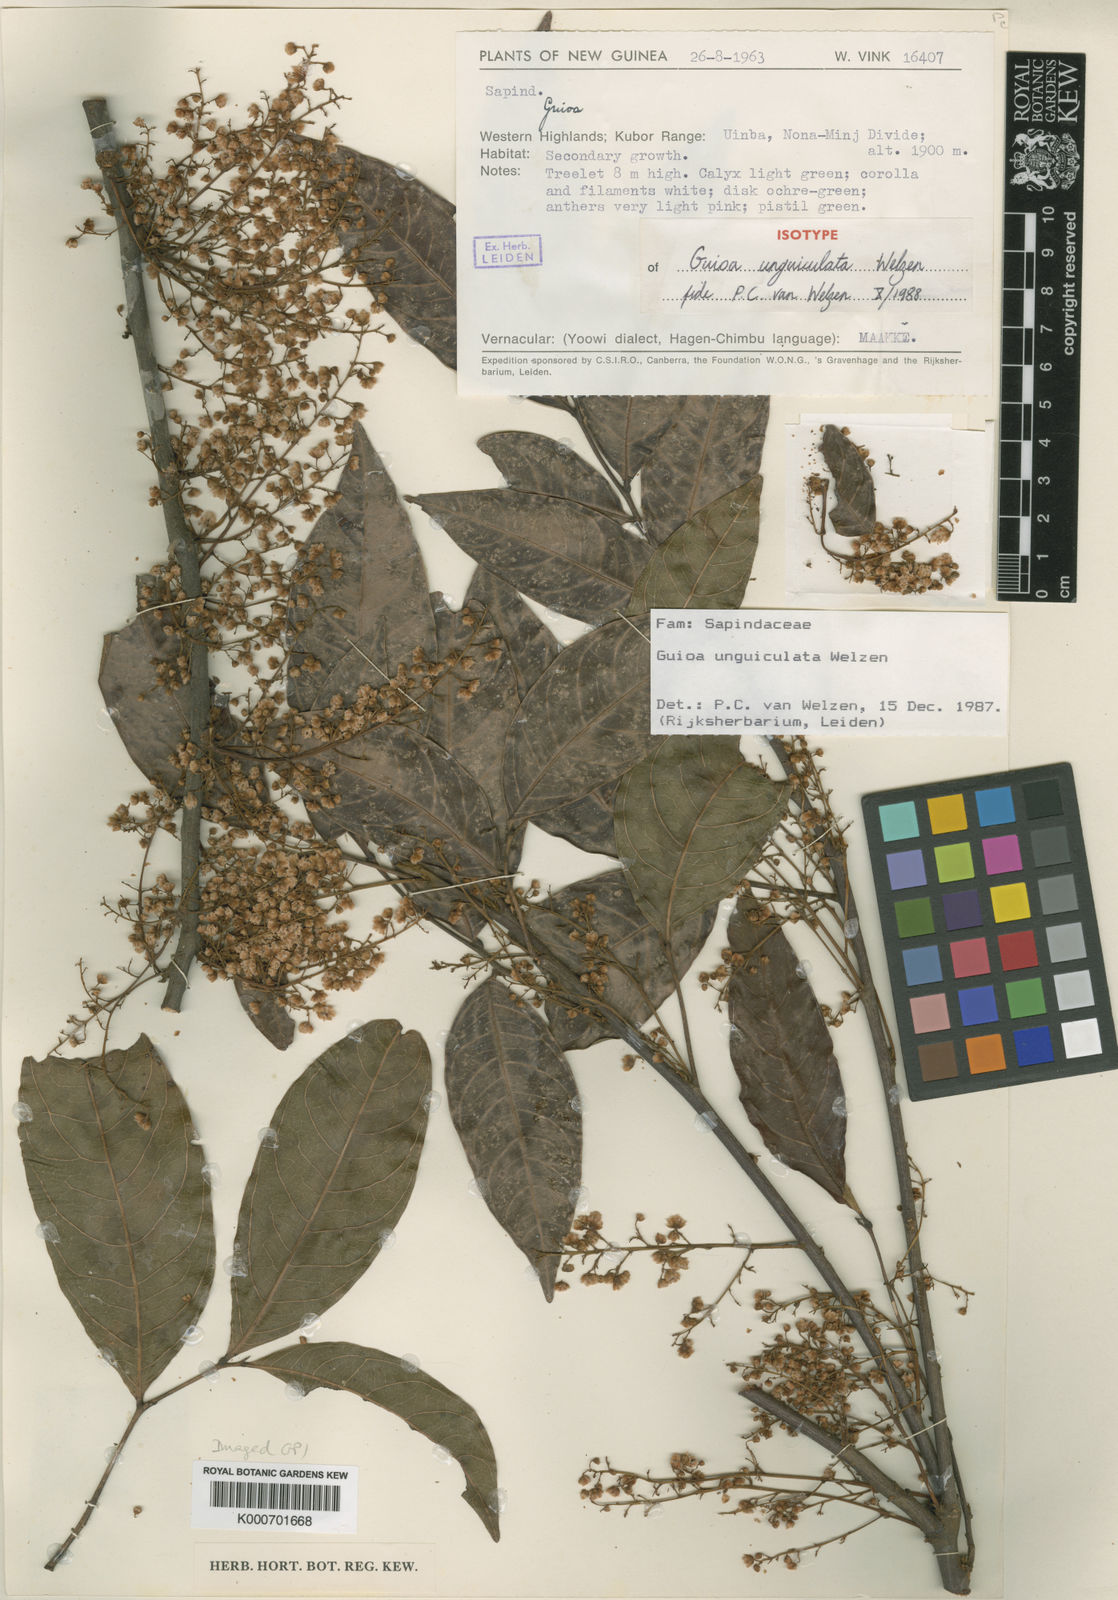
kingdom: Plantae
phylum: Tracheophyta
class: Magnoliopsida
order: Sapindales
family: Sapindaceae
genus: Guioa
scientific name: Guioa unguiculata
